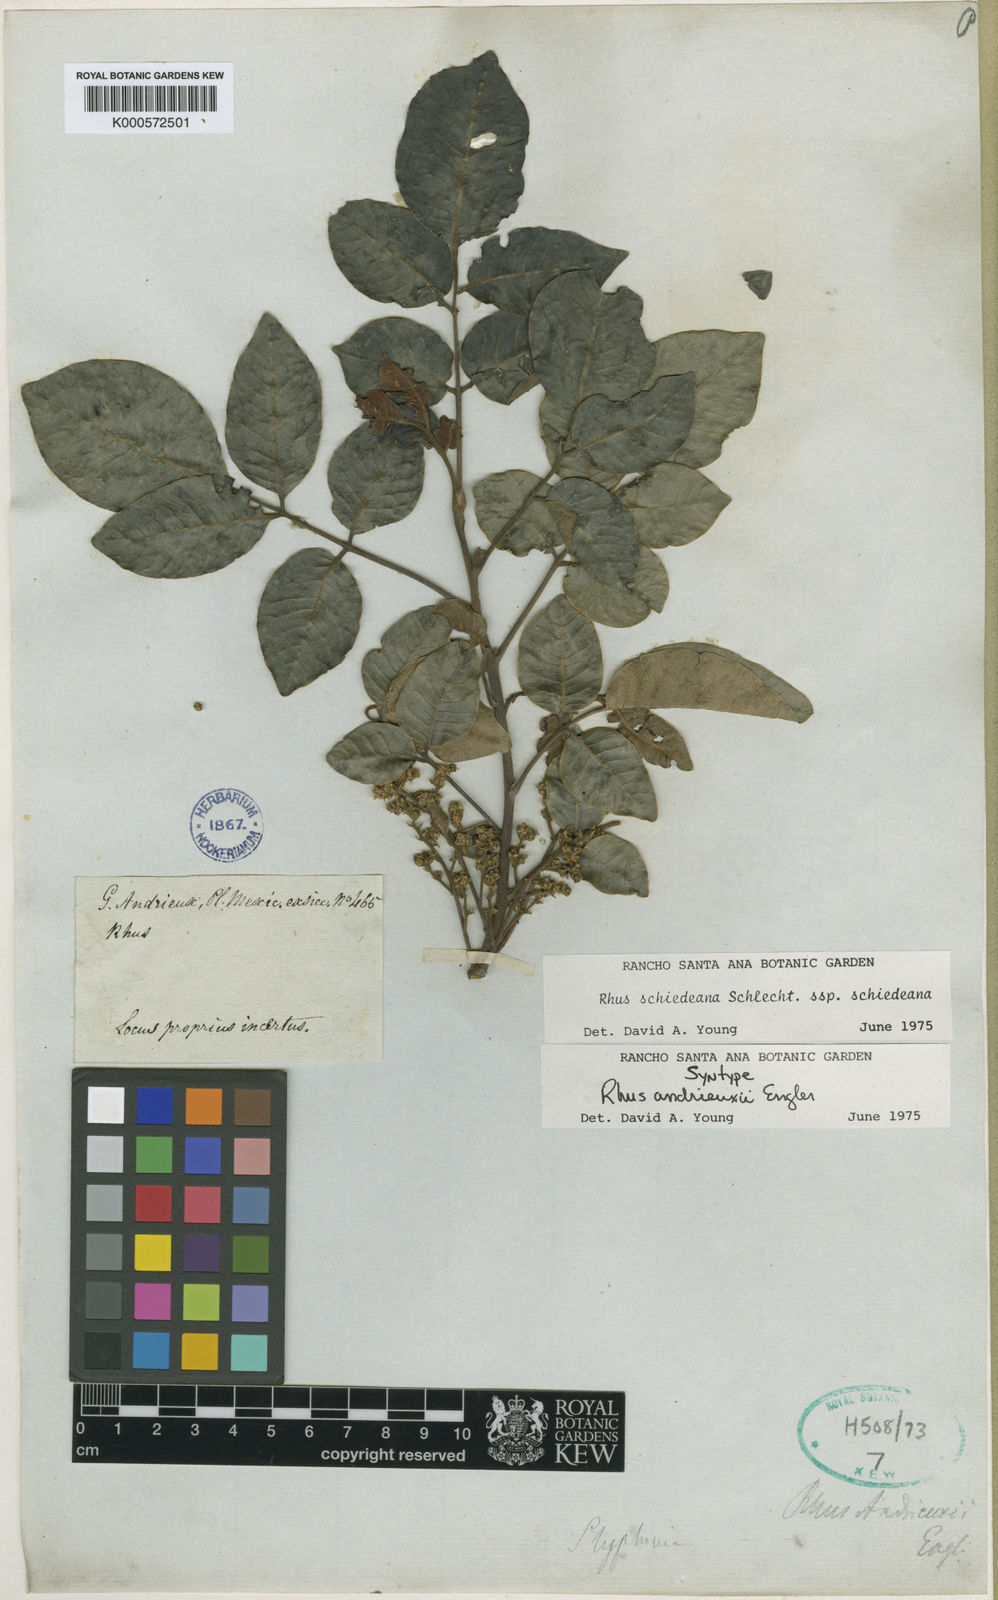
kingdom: Plantae
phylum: Tracheophyta
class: Magnoliopsida
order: Sapindales
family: Anacardiaceae
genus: Rhus
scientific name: Rhus andrieuxii
